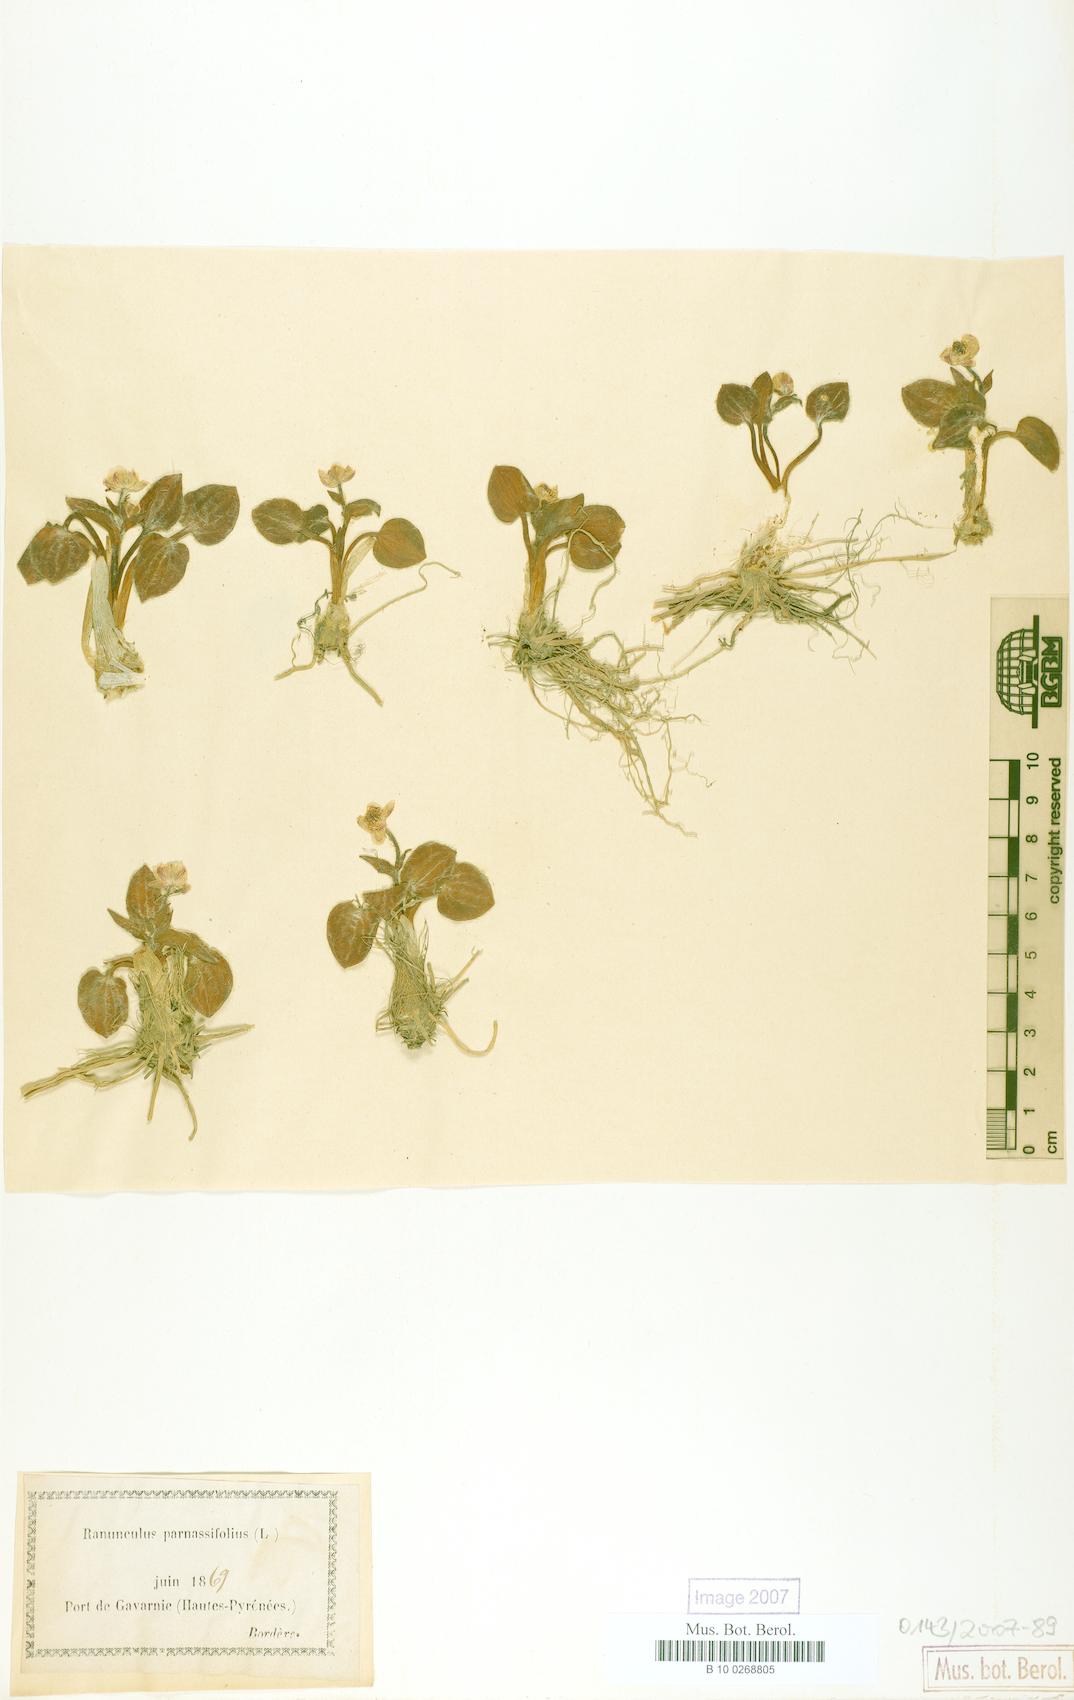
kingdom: Plantae
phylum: Tracheophyta
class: Magnoliopsida
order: Ranunculales
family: Ranunculaceae
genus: Ranunculus
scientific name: Ranunculus parnassiifolius
